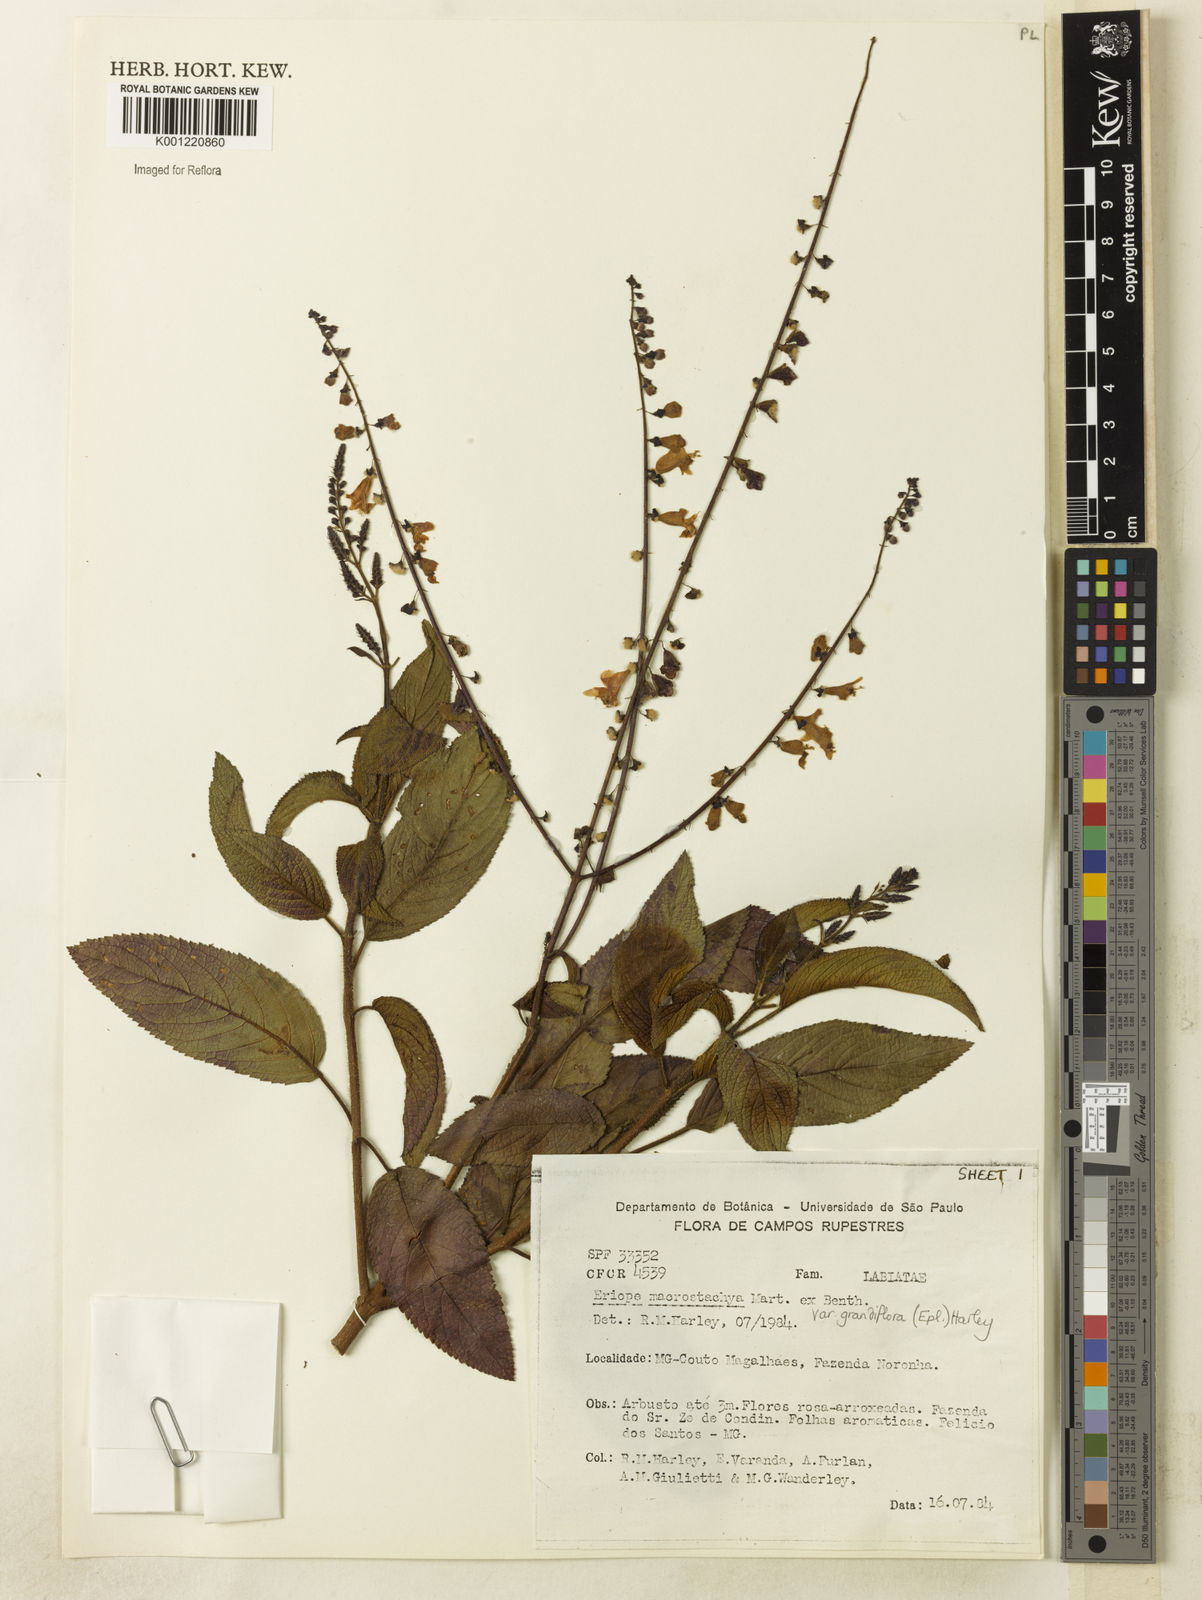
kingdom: Plantae
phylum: Tracheophyta
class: Magnoliopsida
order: Lamiales
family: Lamiaceae
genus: Eriope
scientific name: Eriope macrostachya
